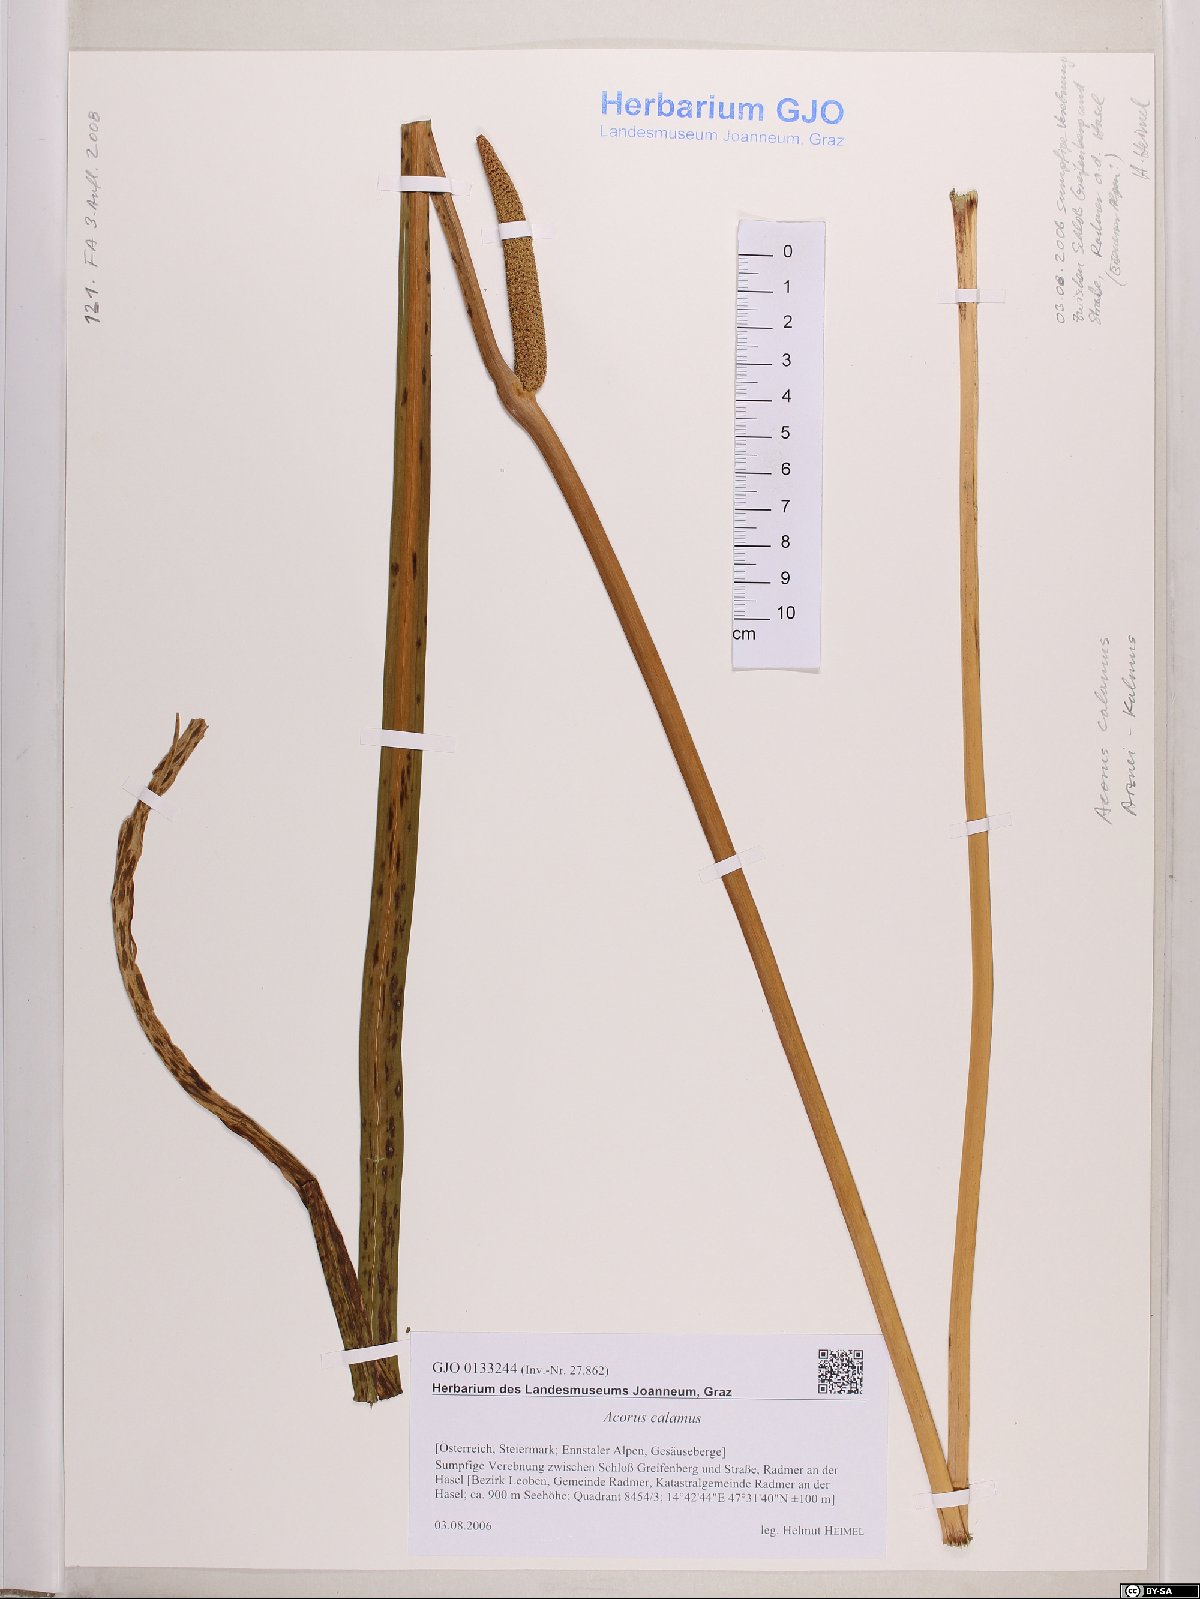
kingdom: Plantae
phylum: Tracheophyta
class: Liliopsida
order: Acorales
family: Acoraceae
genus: Acorus
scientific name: Acorus calamus
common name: Sweet-flag
